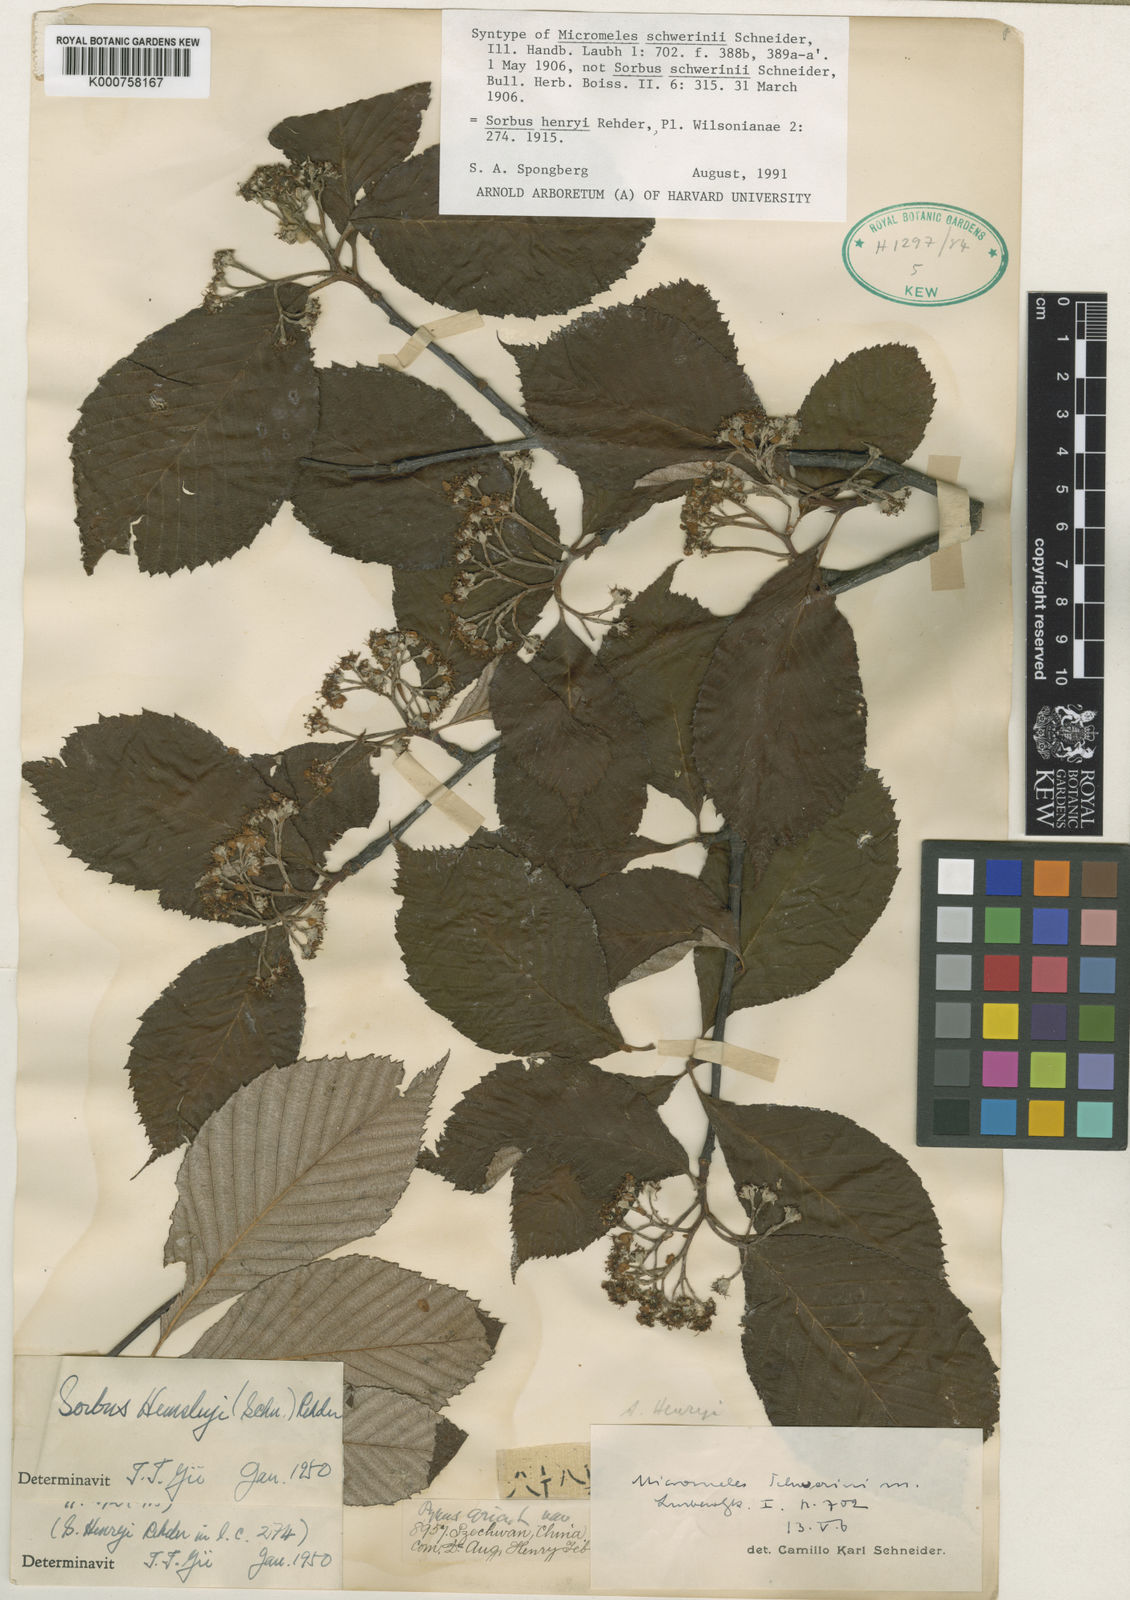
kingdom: Plantae
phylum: Tracheophyta
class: Magnoliopsida
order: Rosales
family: Rosaceae
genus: Sorbus
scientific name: Sorbus schwerinii
